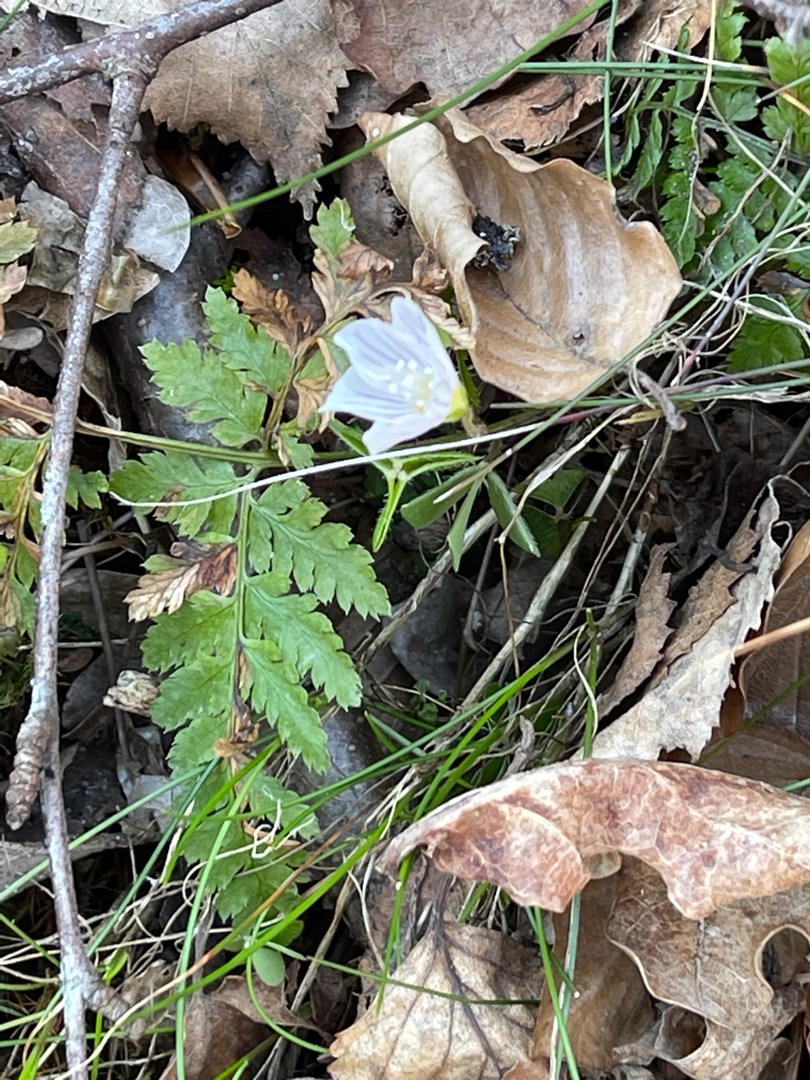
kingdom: Plantae
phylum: Tracheophyta
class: Magnoliopsida
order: Oxalidales
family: Oxalidaceae
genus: Oxalis
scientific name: Oxalis acetosella
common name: Skovsyre
